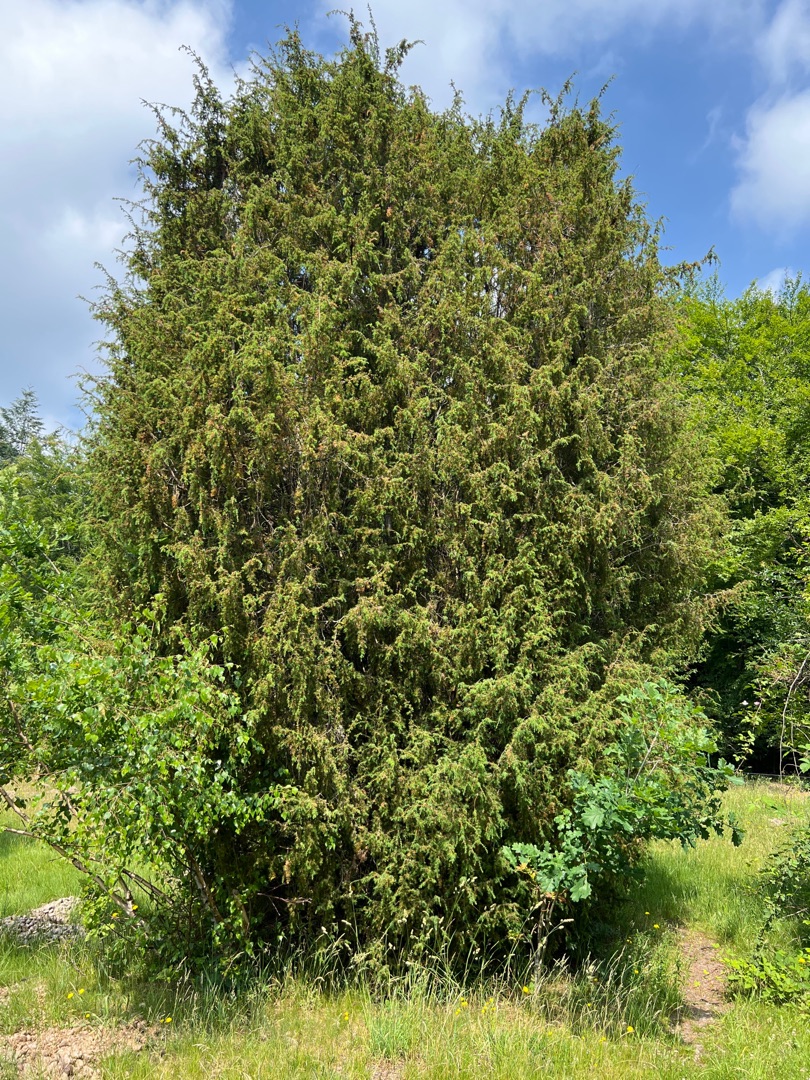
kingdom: Plantae
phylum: Tracheophyta
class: Pinopsida
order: Pinales
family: Cupressaceae
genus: Juniperus
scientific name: Juniperus communis
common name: Almindelig ene
